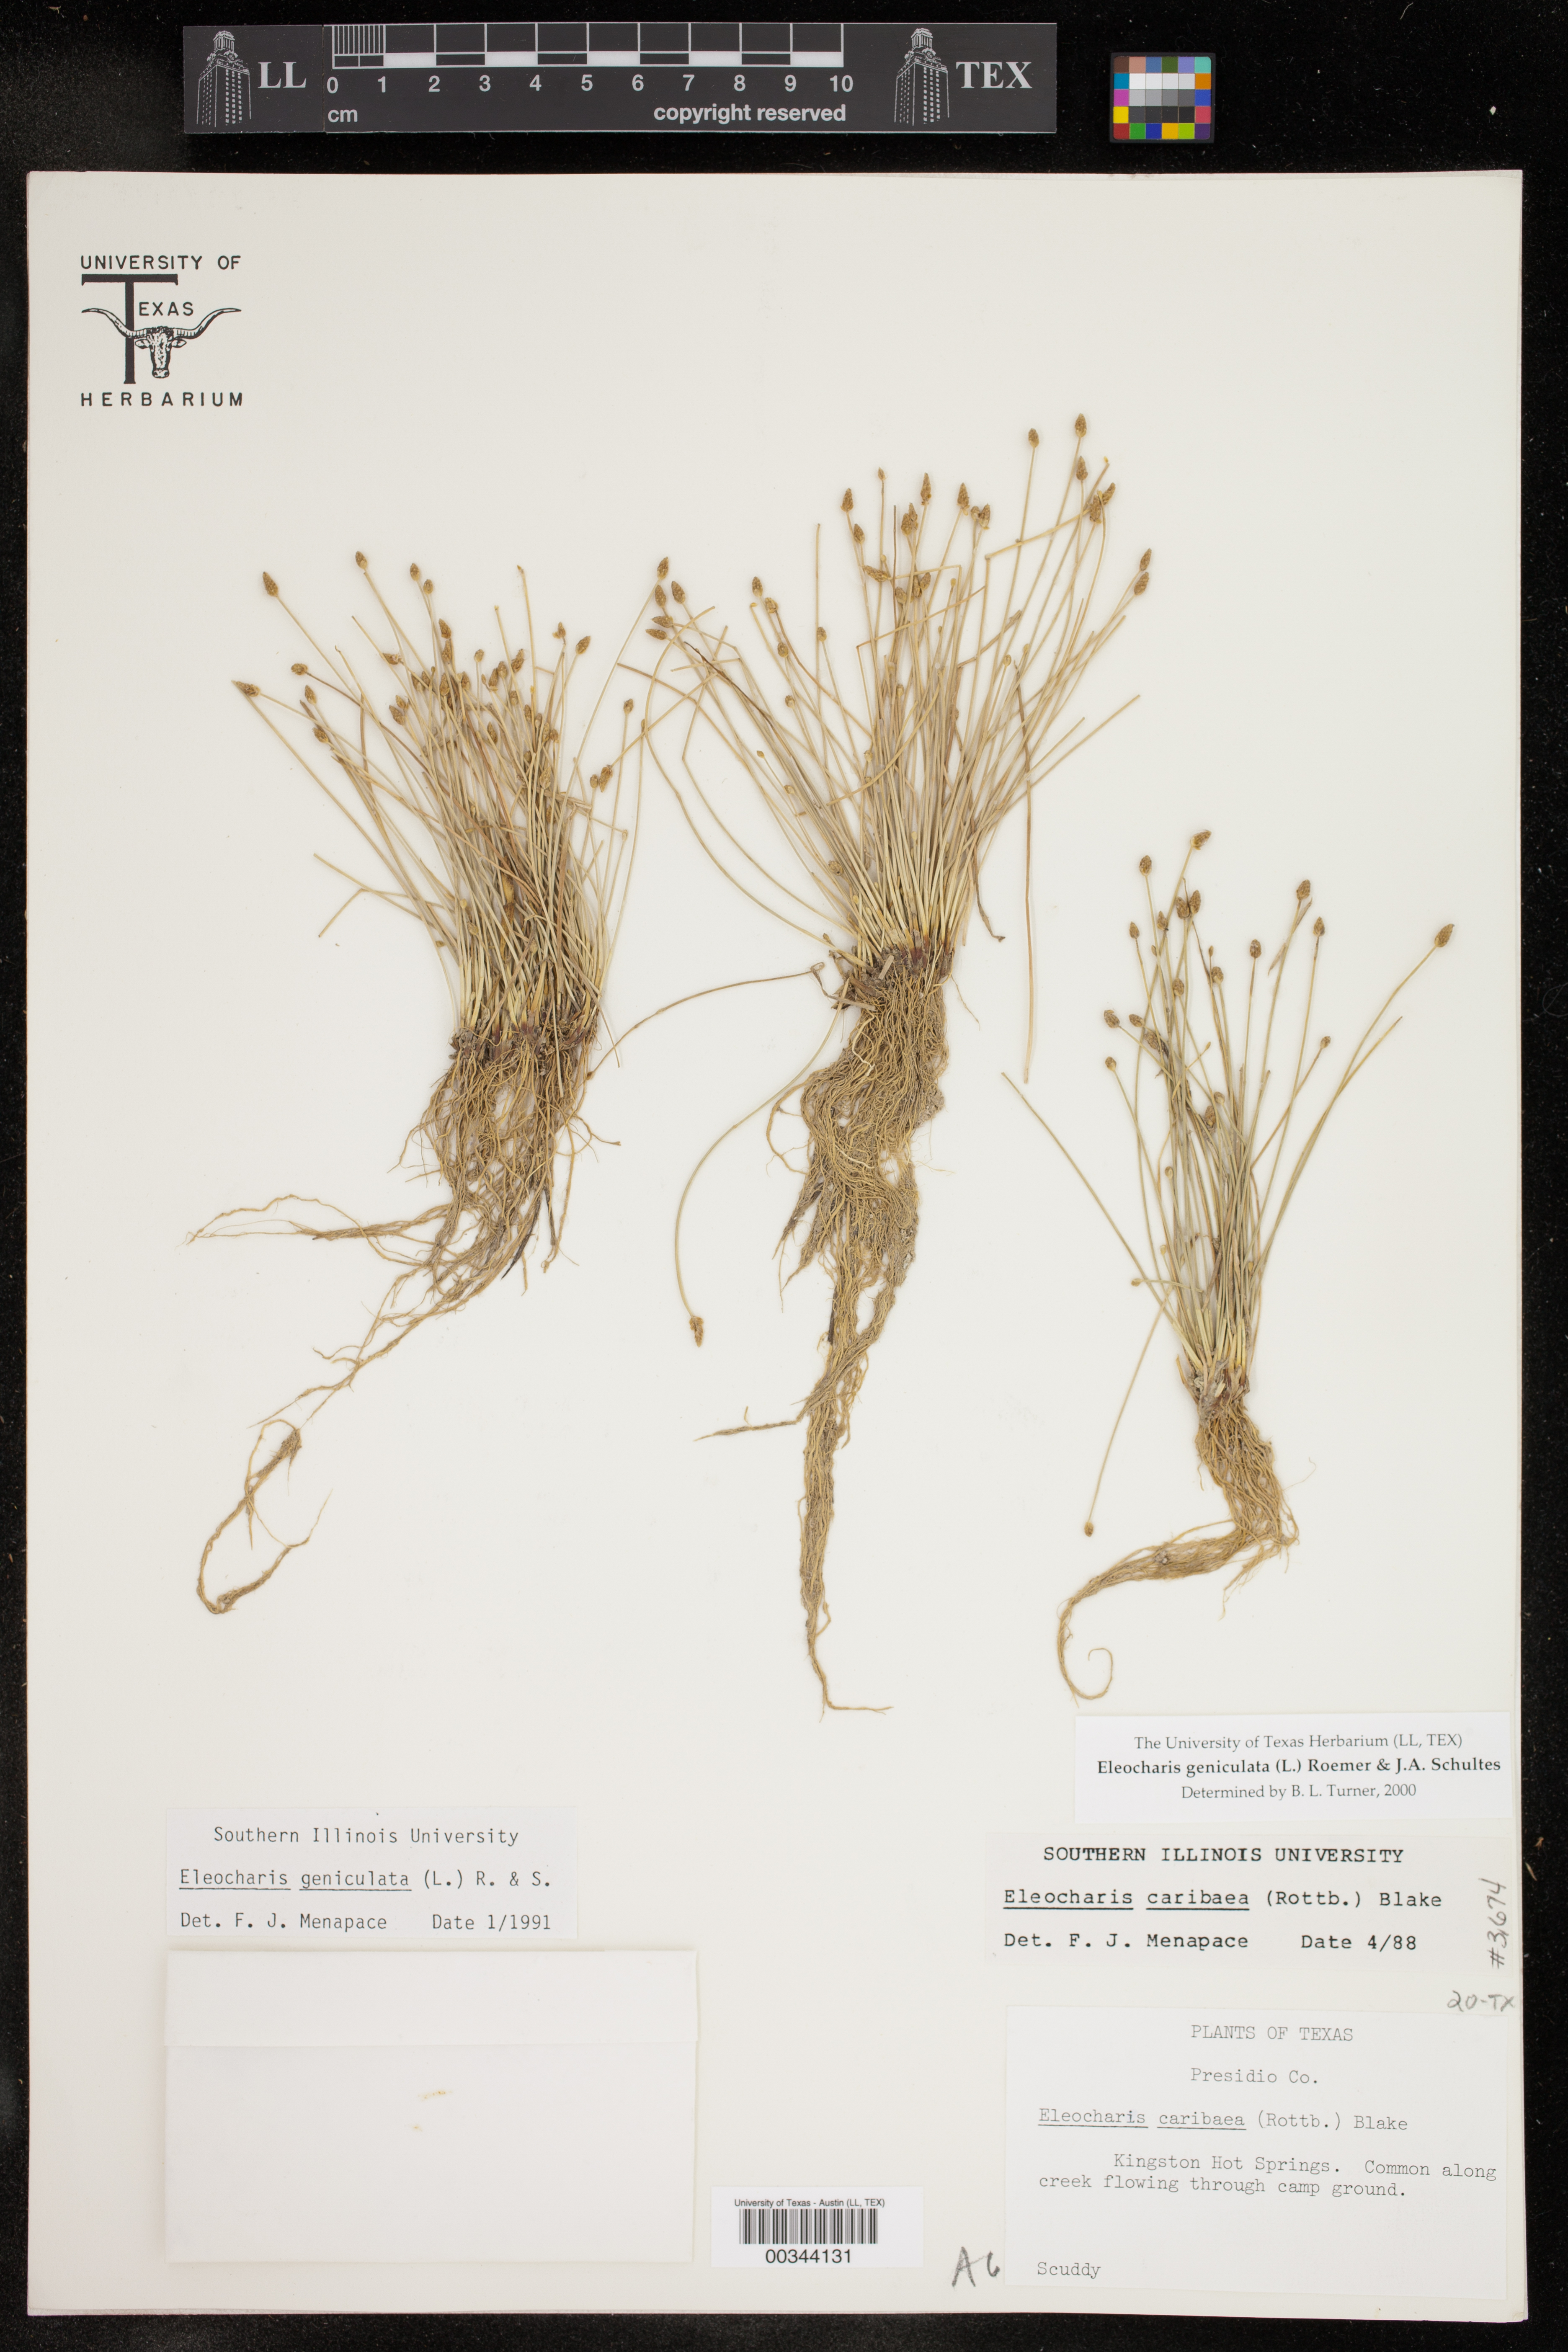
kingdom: Plantae
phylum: Tracheophyta
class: Liliopsida
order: Poales
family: Cyperaceae
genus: Eleocharis
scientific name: Eleocharis geniculata
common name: Canada spikesedge
